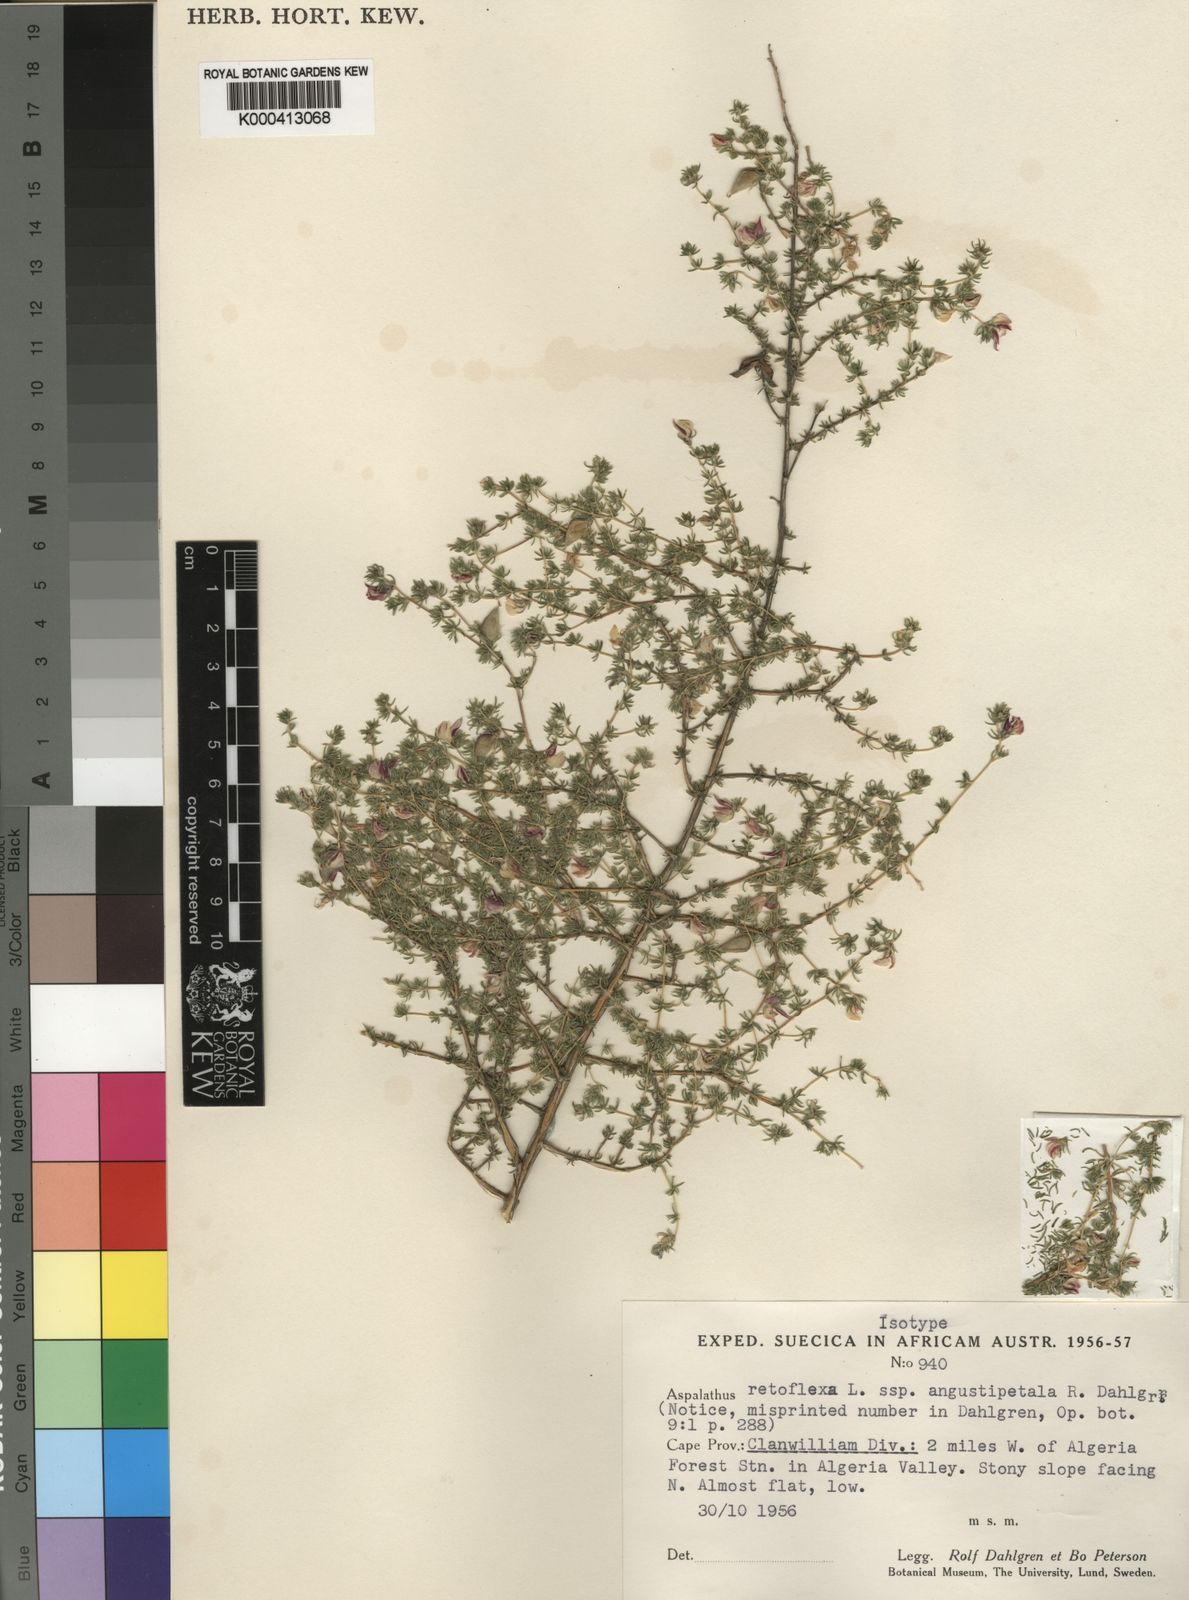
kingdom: Plantae
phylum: Tracheophyta
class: Magnoliopsida
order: Fabales
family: Fabaceae
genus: Aspalathus
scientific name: Aspalathus retroflexa
